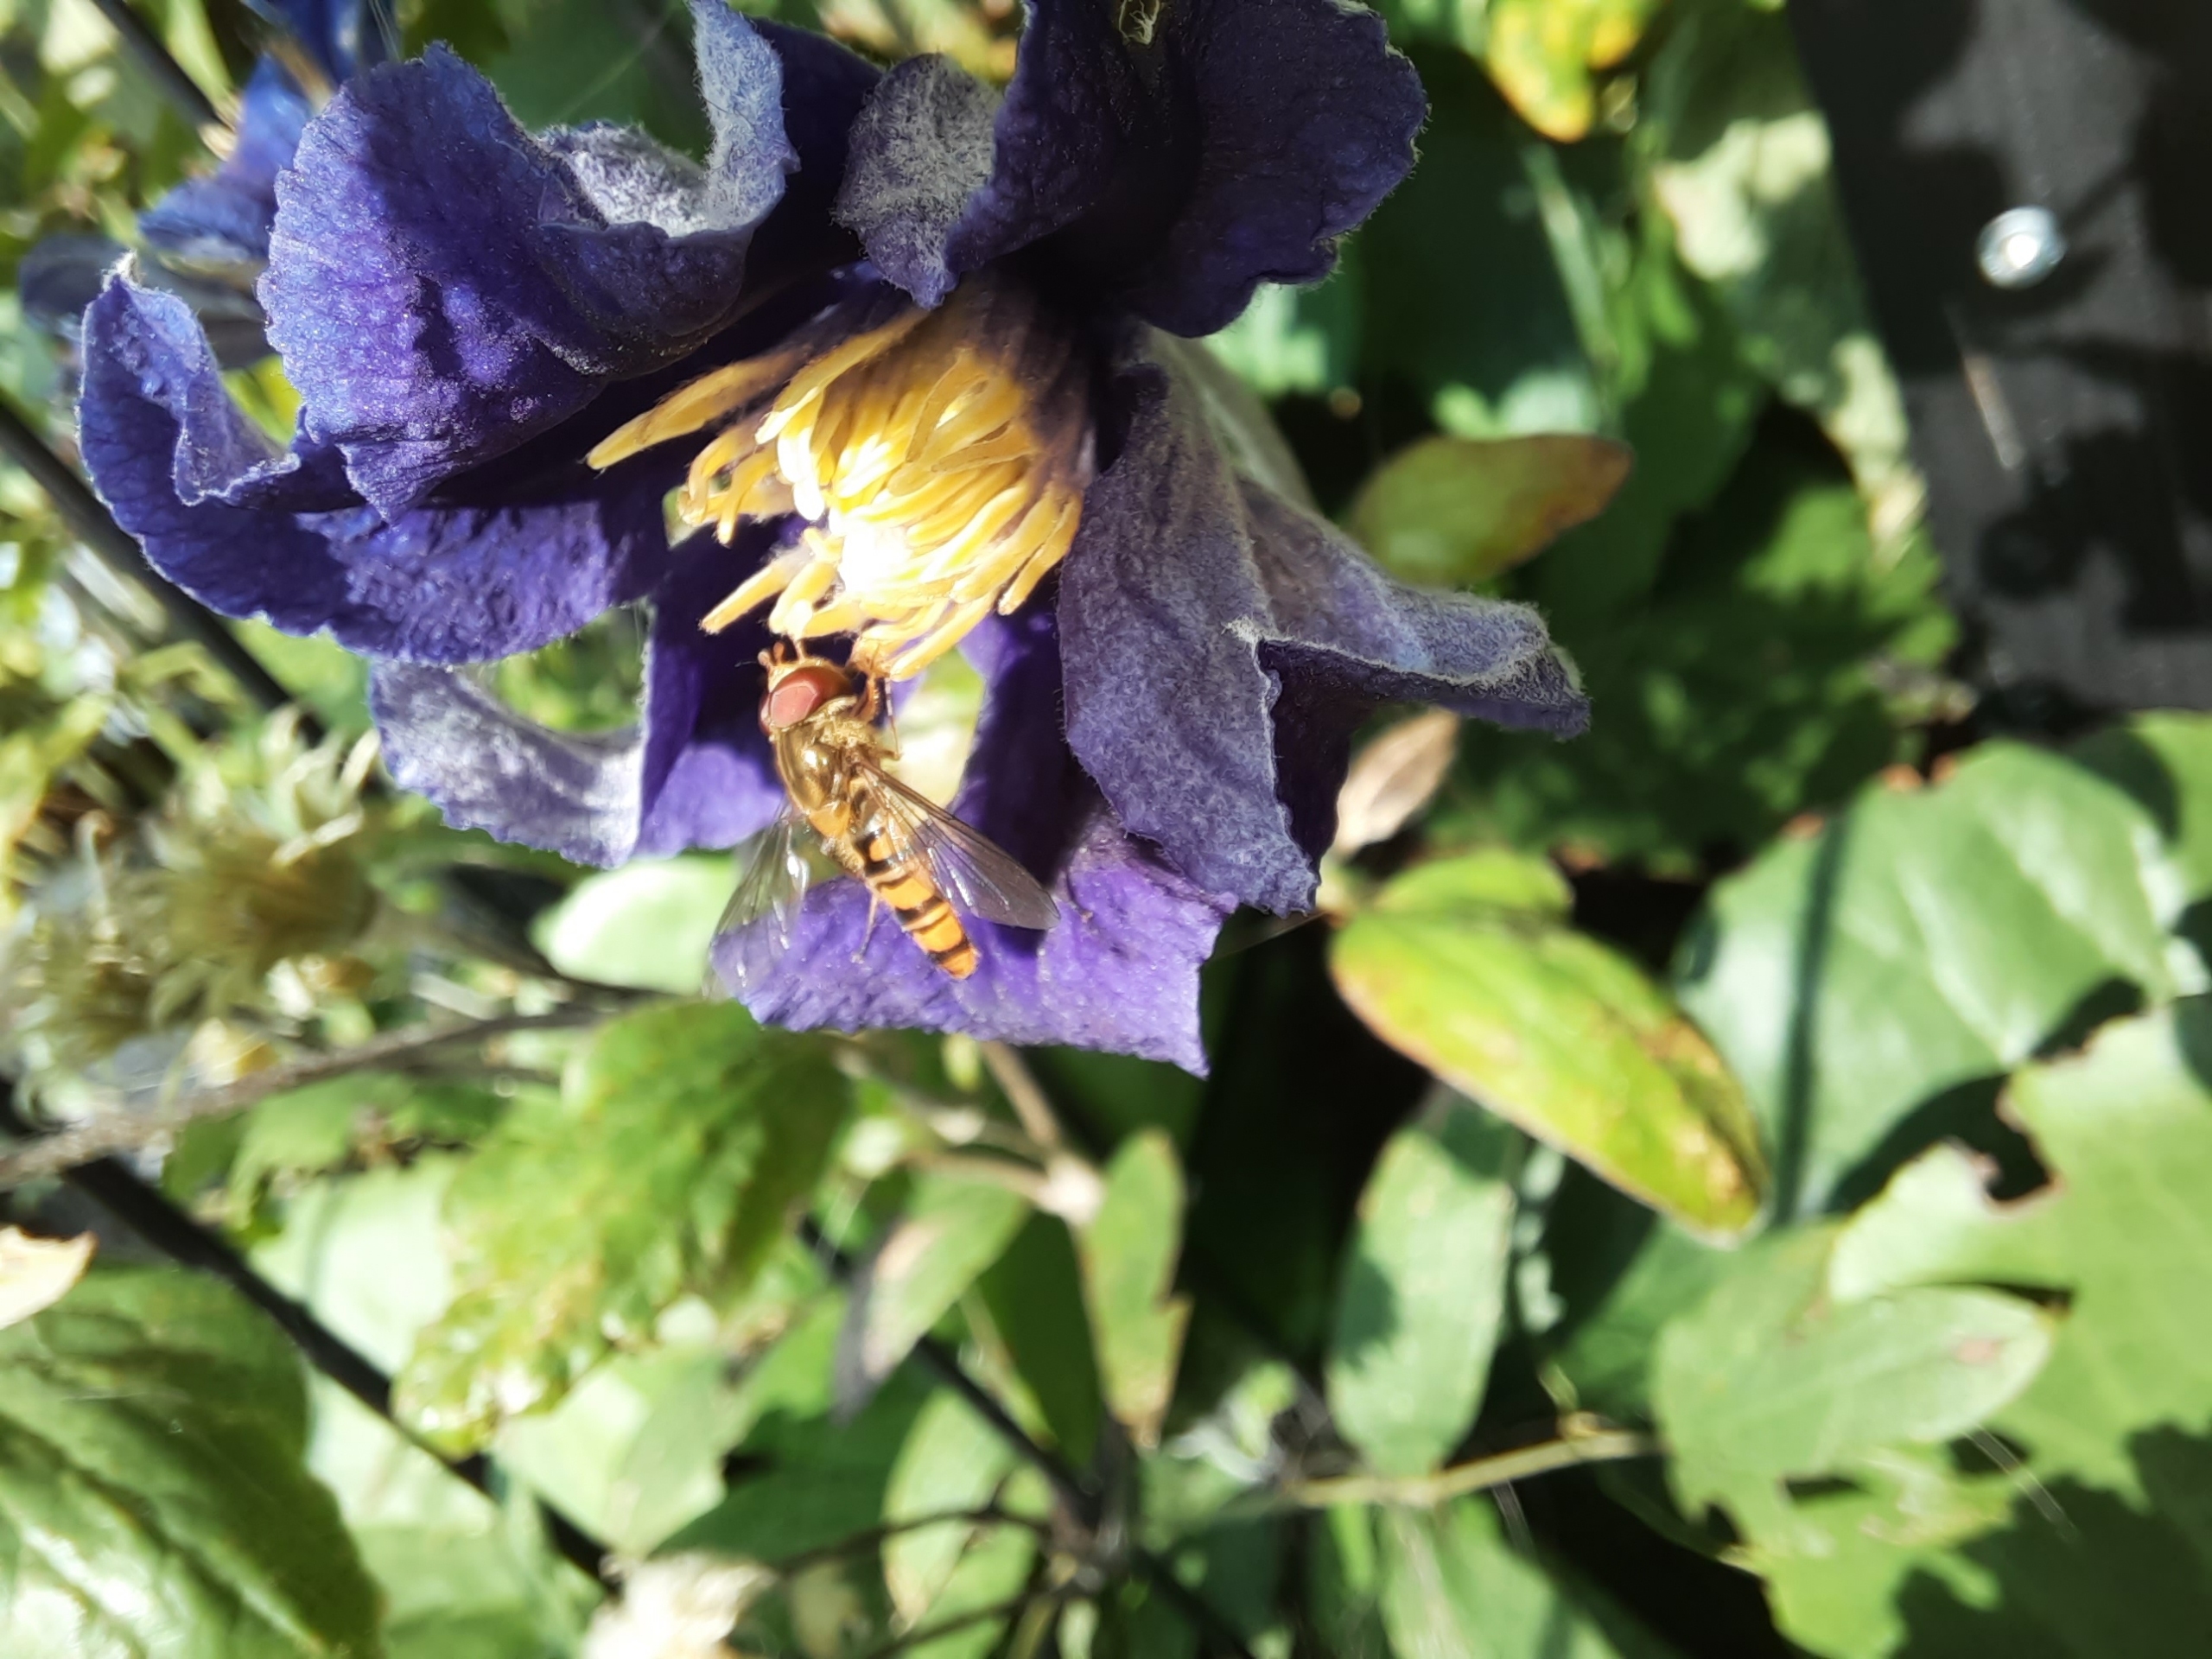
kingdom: Animalia
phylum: Arthropoda
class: Insecta
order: Diptera
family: Syrphidae
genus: Episyrphus
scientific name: Episyrphus balteatus
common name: Dobbeltbåndet svirreflue
